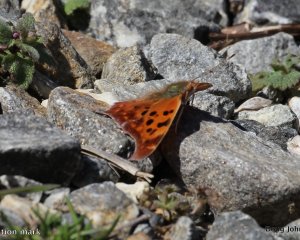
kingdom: Animalia
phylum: Arthropoda
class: Insecta
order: Lepidoptera
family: Nymphalidae
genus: Polygonia
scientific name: Polygonia interrogationis
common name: Question Mark
